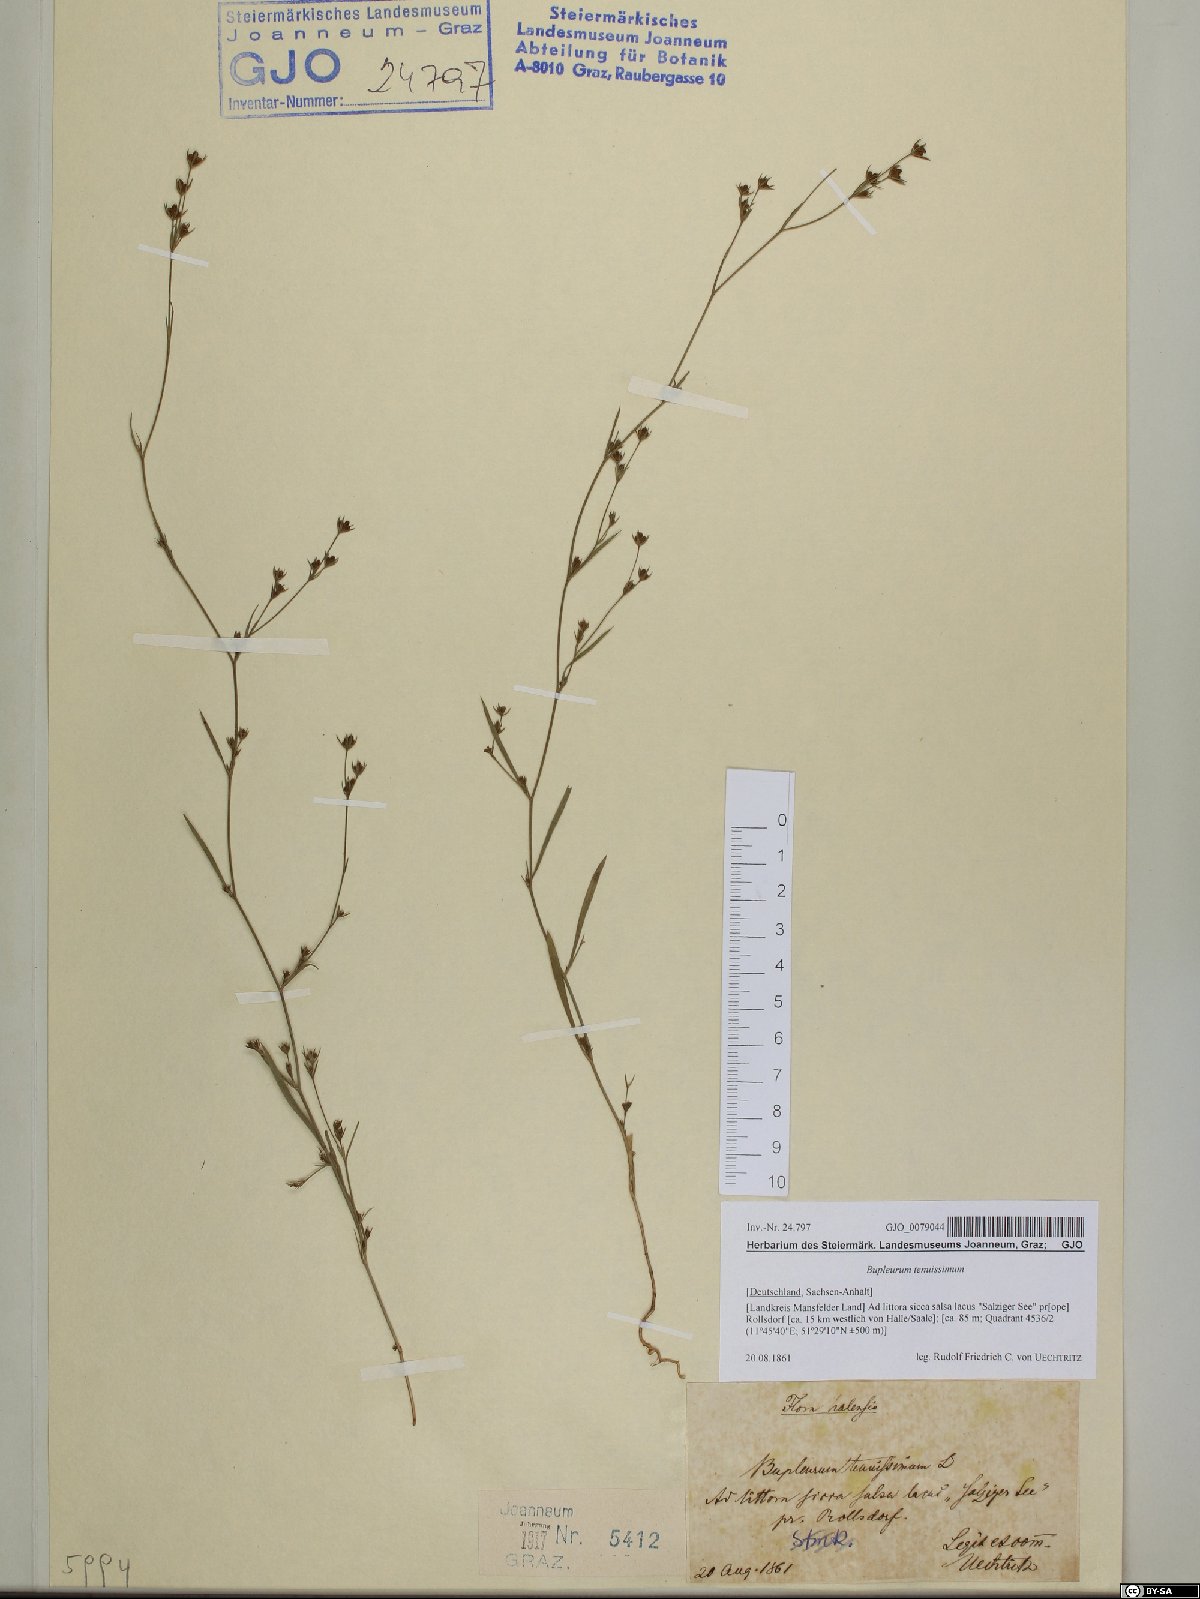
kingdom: Plantae
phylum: Tracheophyta
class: Magnoliopsida
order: Apiales
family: Apiaceae
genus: Bupleurum
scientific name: Bupleurum tenuissimum
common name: Slender hare's-ear
